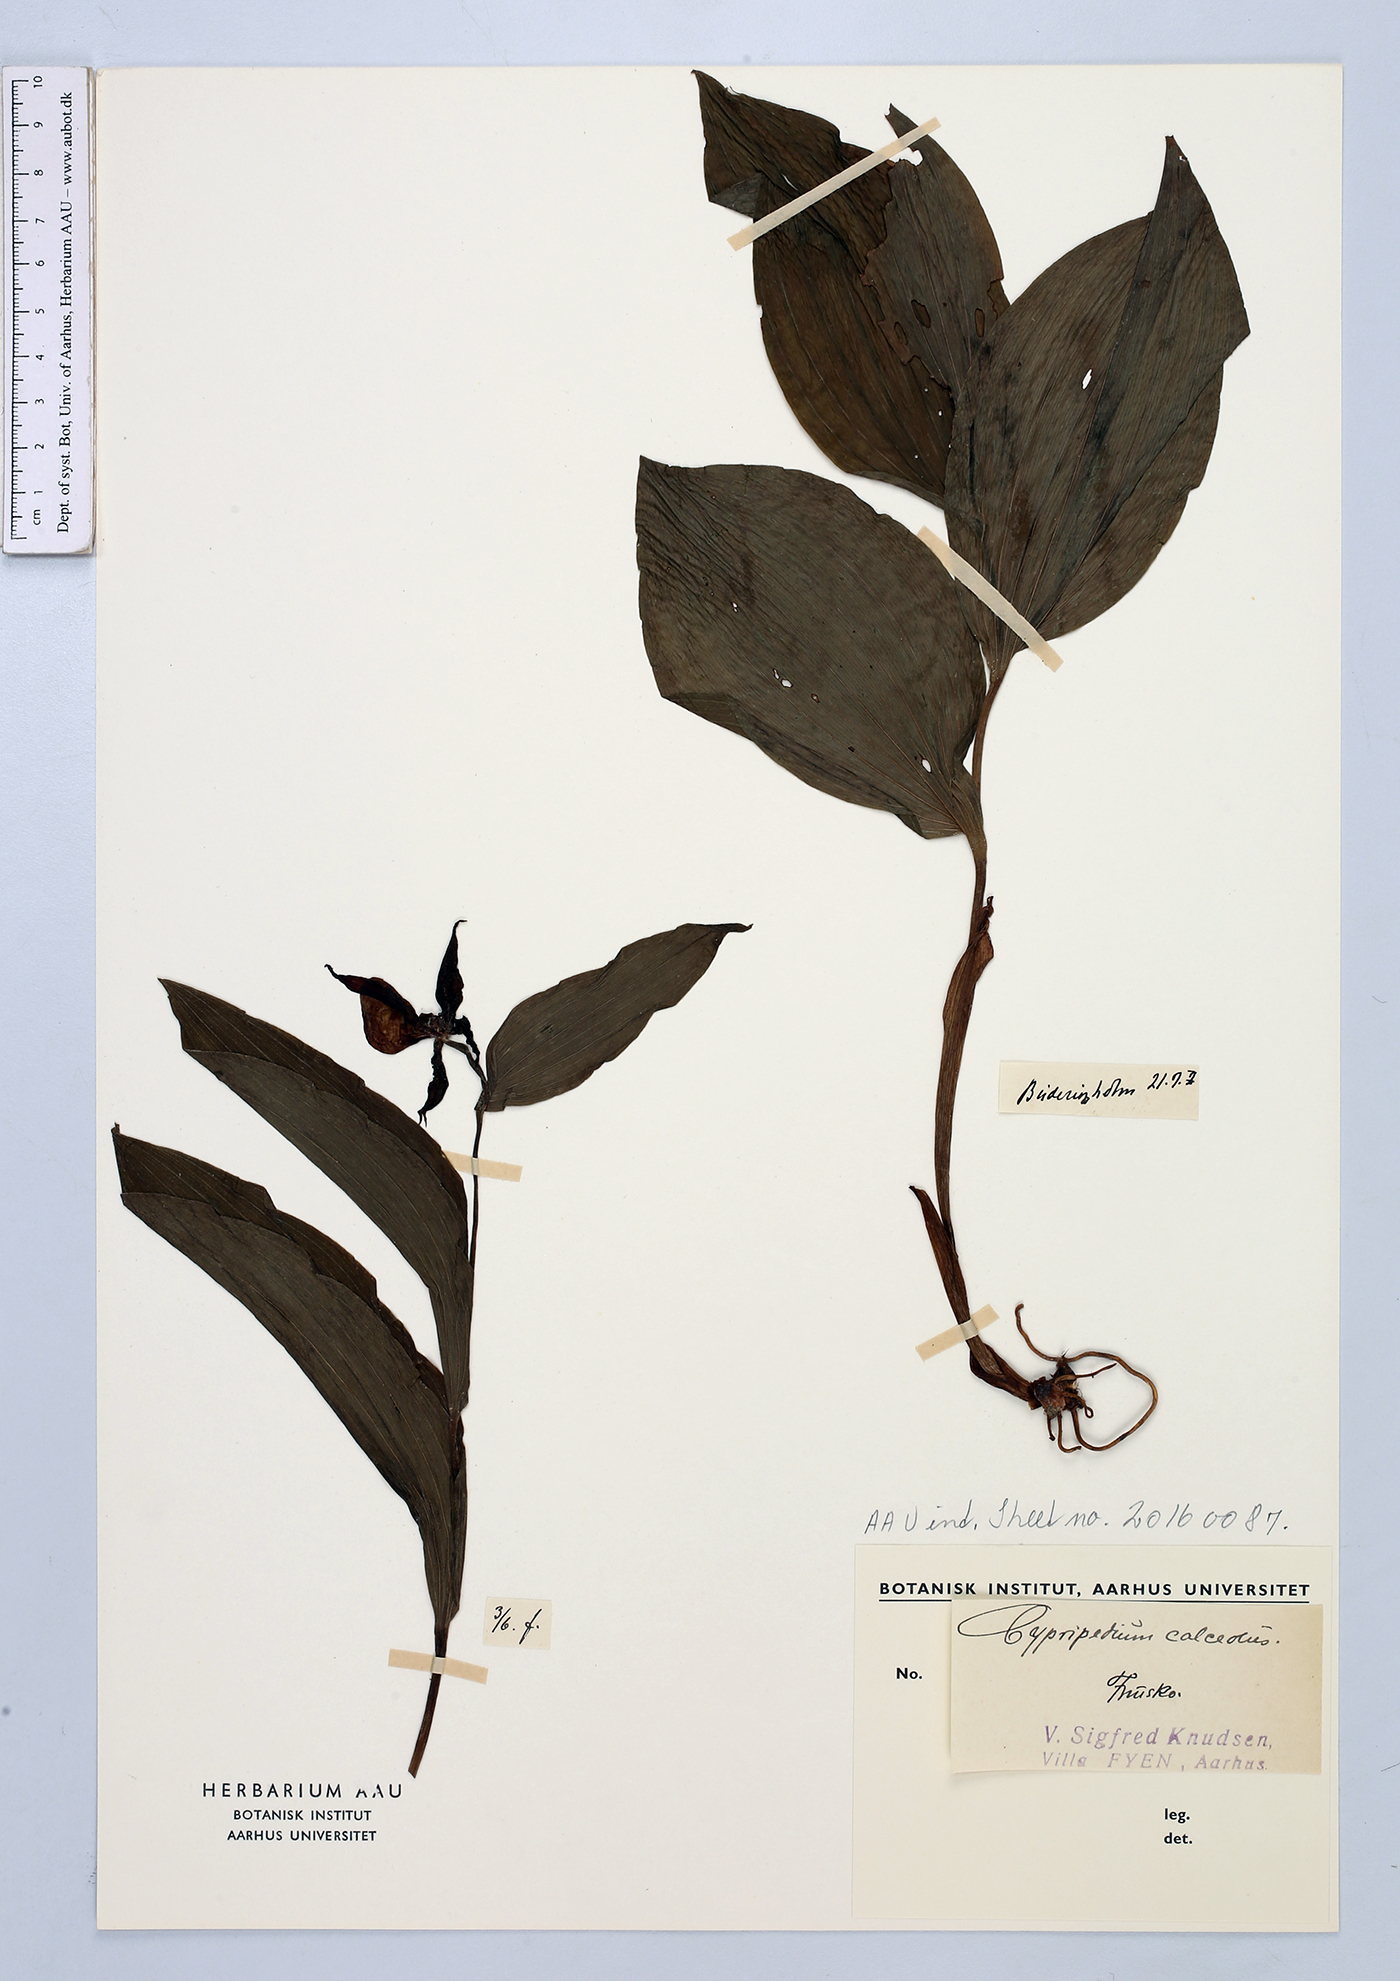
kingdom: Plantae
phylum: Tracheophyta
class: Liliopsida
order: Asparagales
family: Orchidaceae
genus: Cypripedium
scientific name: Cypripedium calceolus
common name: Lady's-slipper
